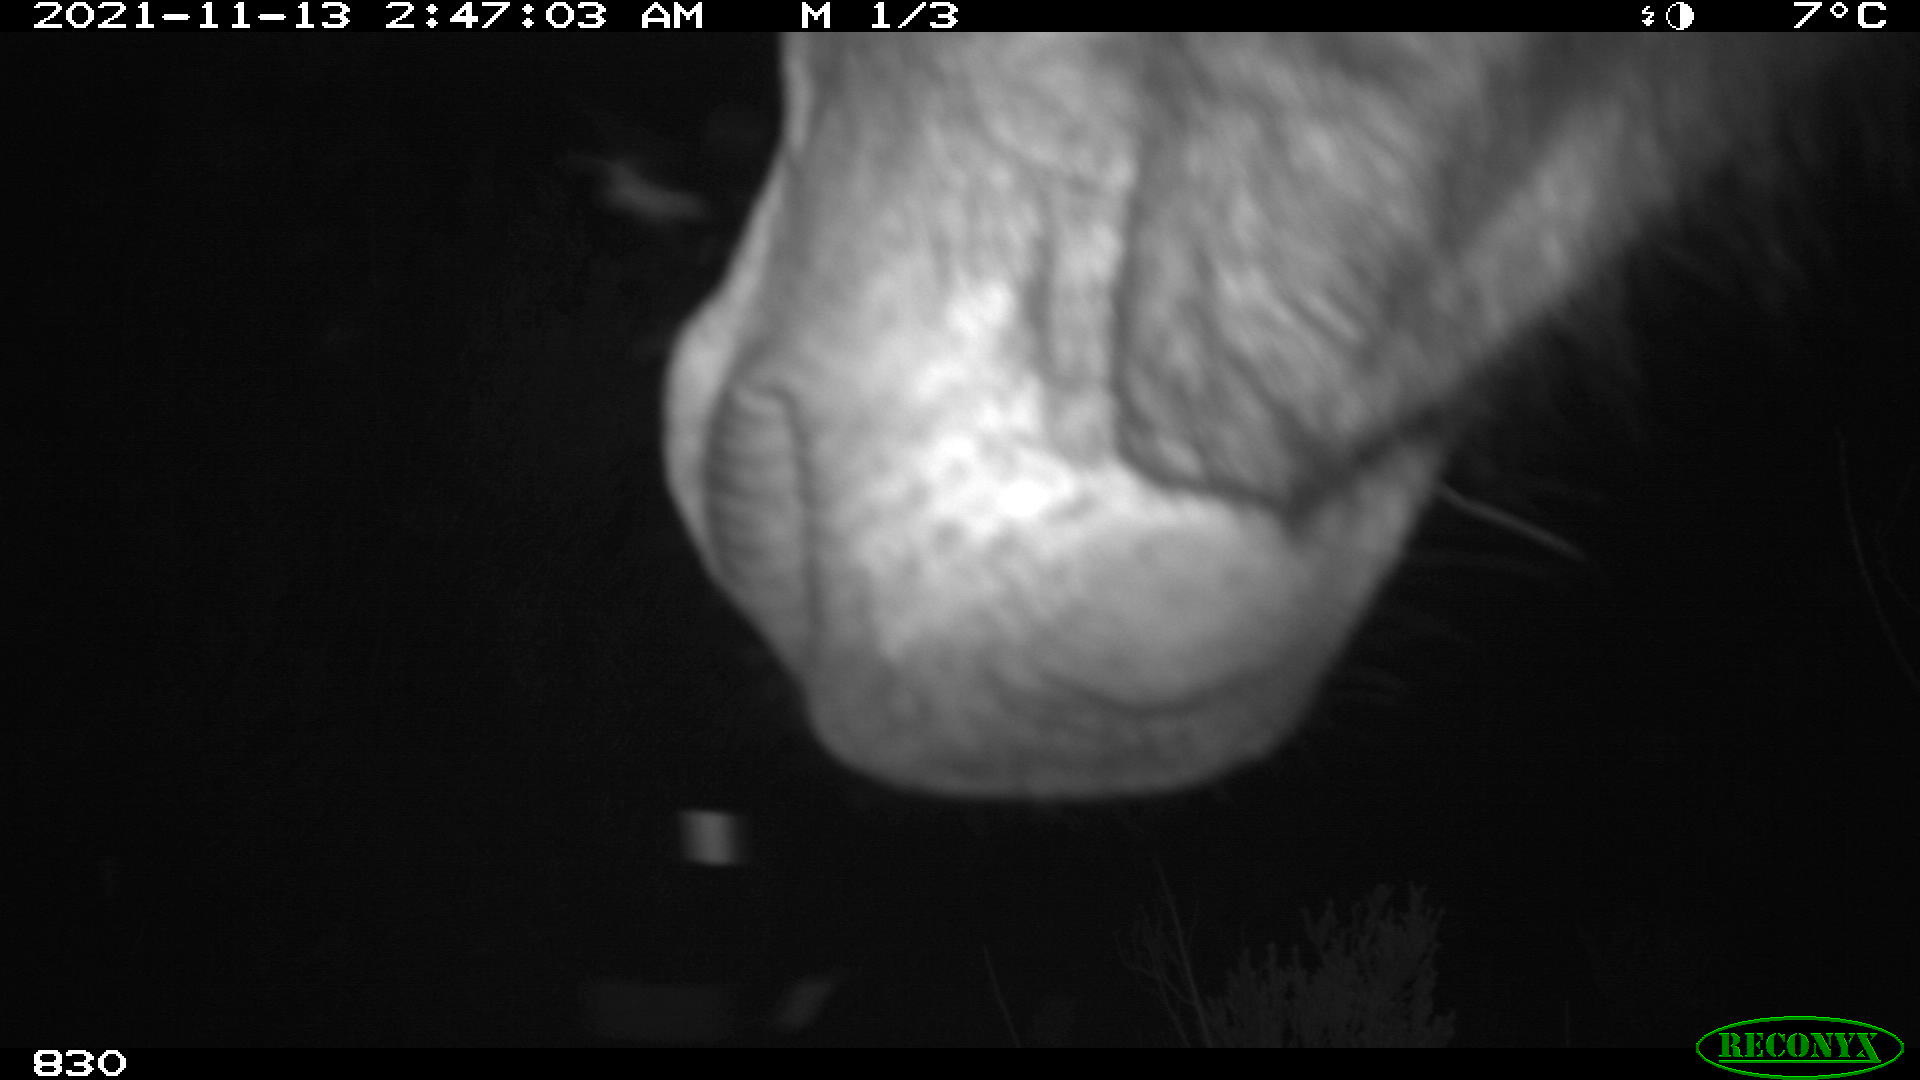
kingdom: Animalia
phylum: Chordata
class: Mammalia
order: Perissodactyla
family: Equidae
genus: Equus
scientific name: Equus caballus
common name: Horse
